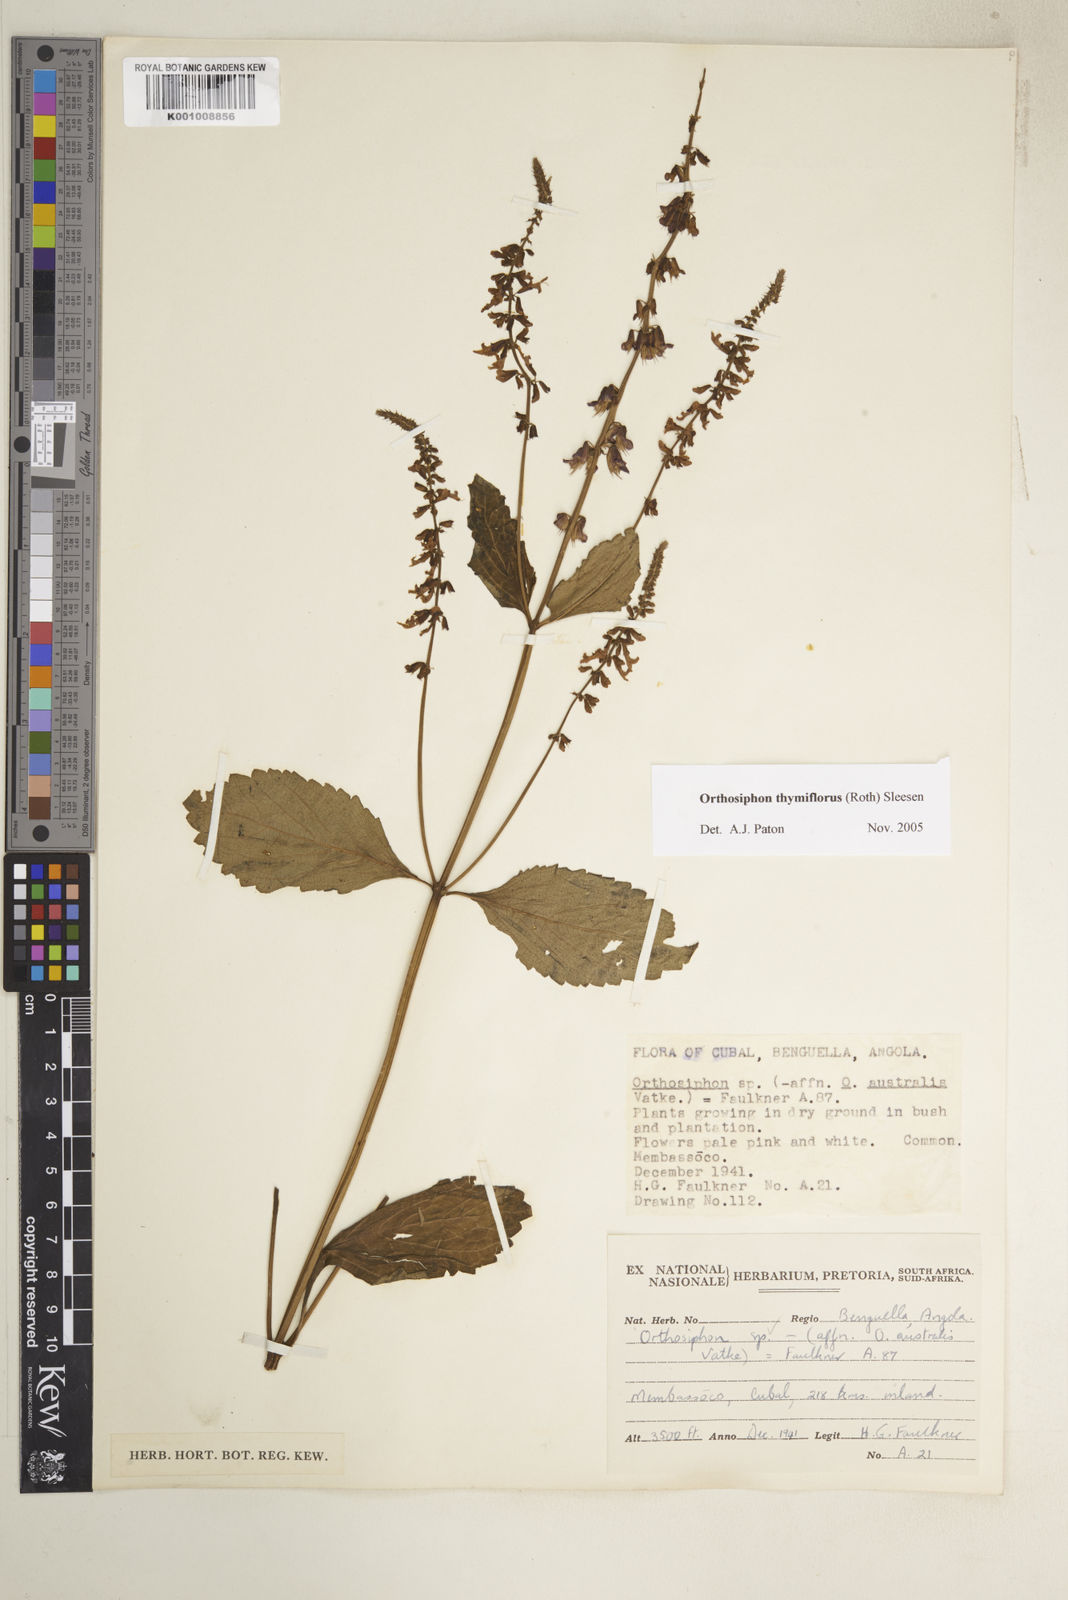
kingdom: Plantae
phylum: Tracheophyta
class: Magnoliopsida
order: Lamiales
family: Lamiaceae
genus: Orthosiphon
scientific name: Orthosiphon thymiflorus
